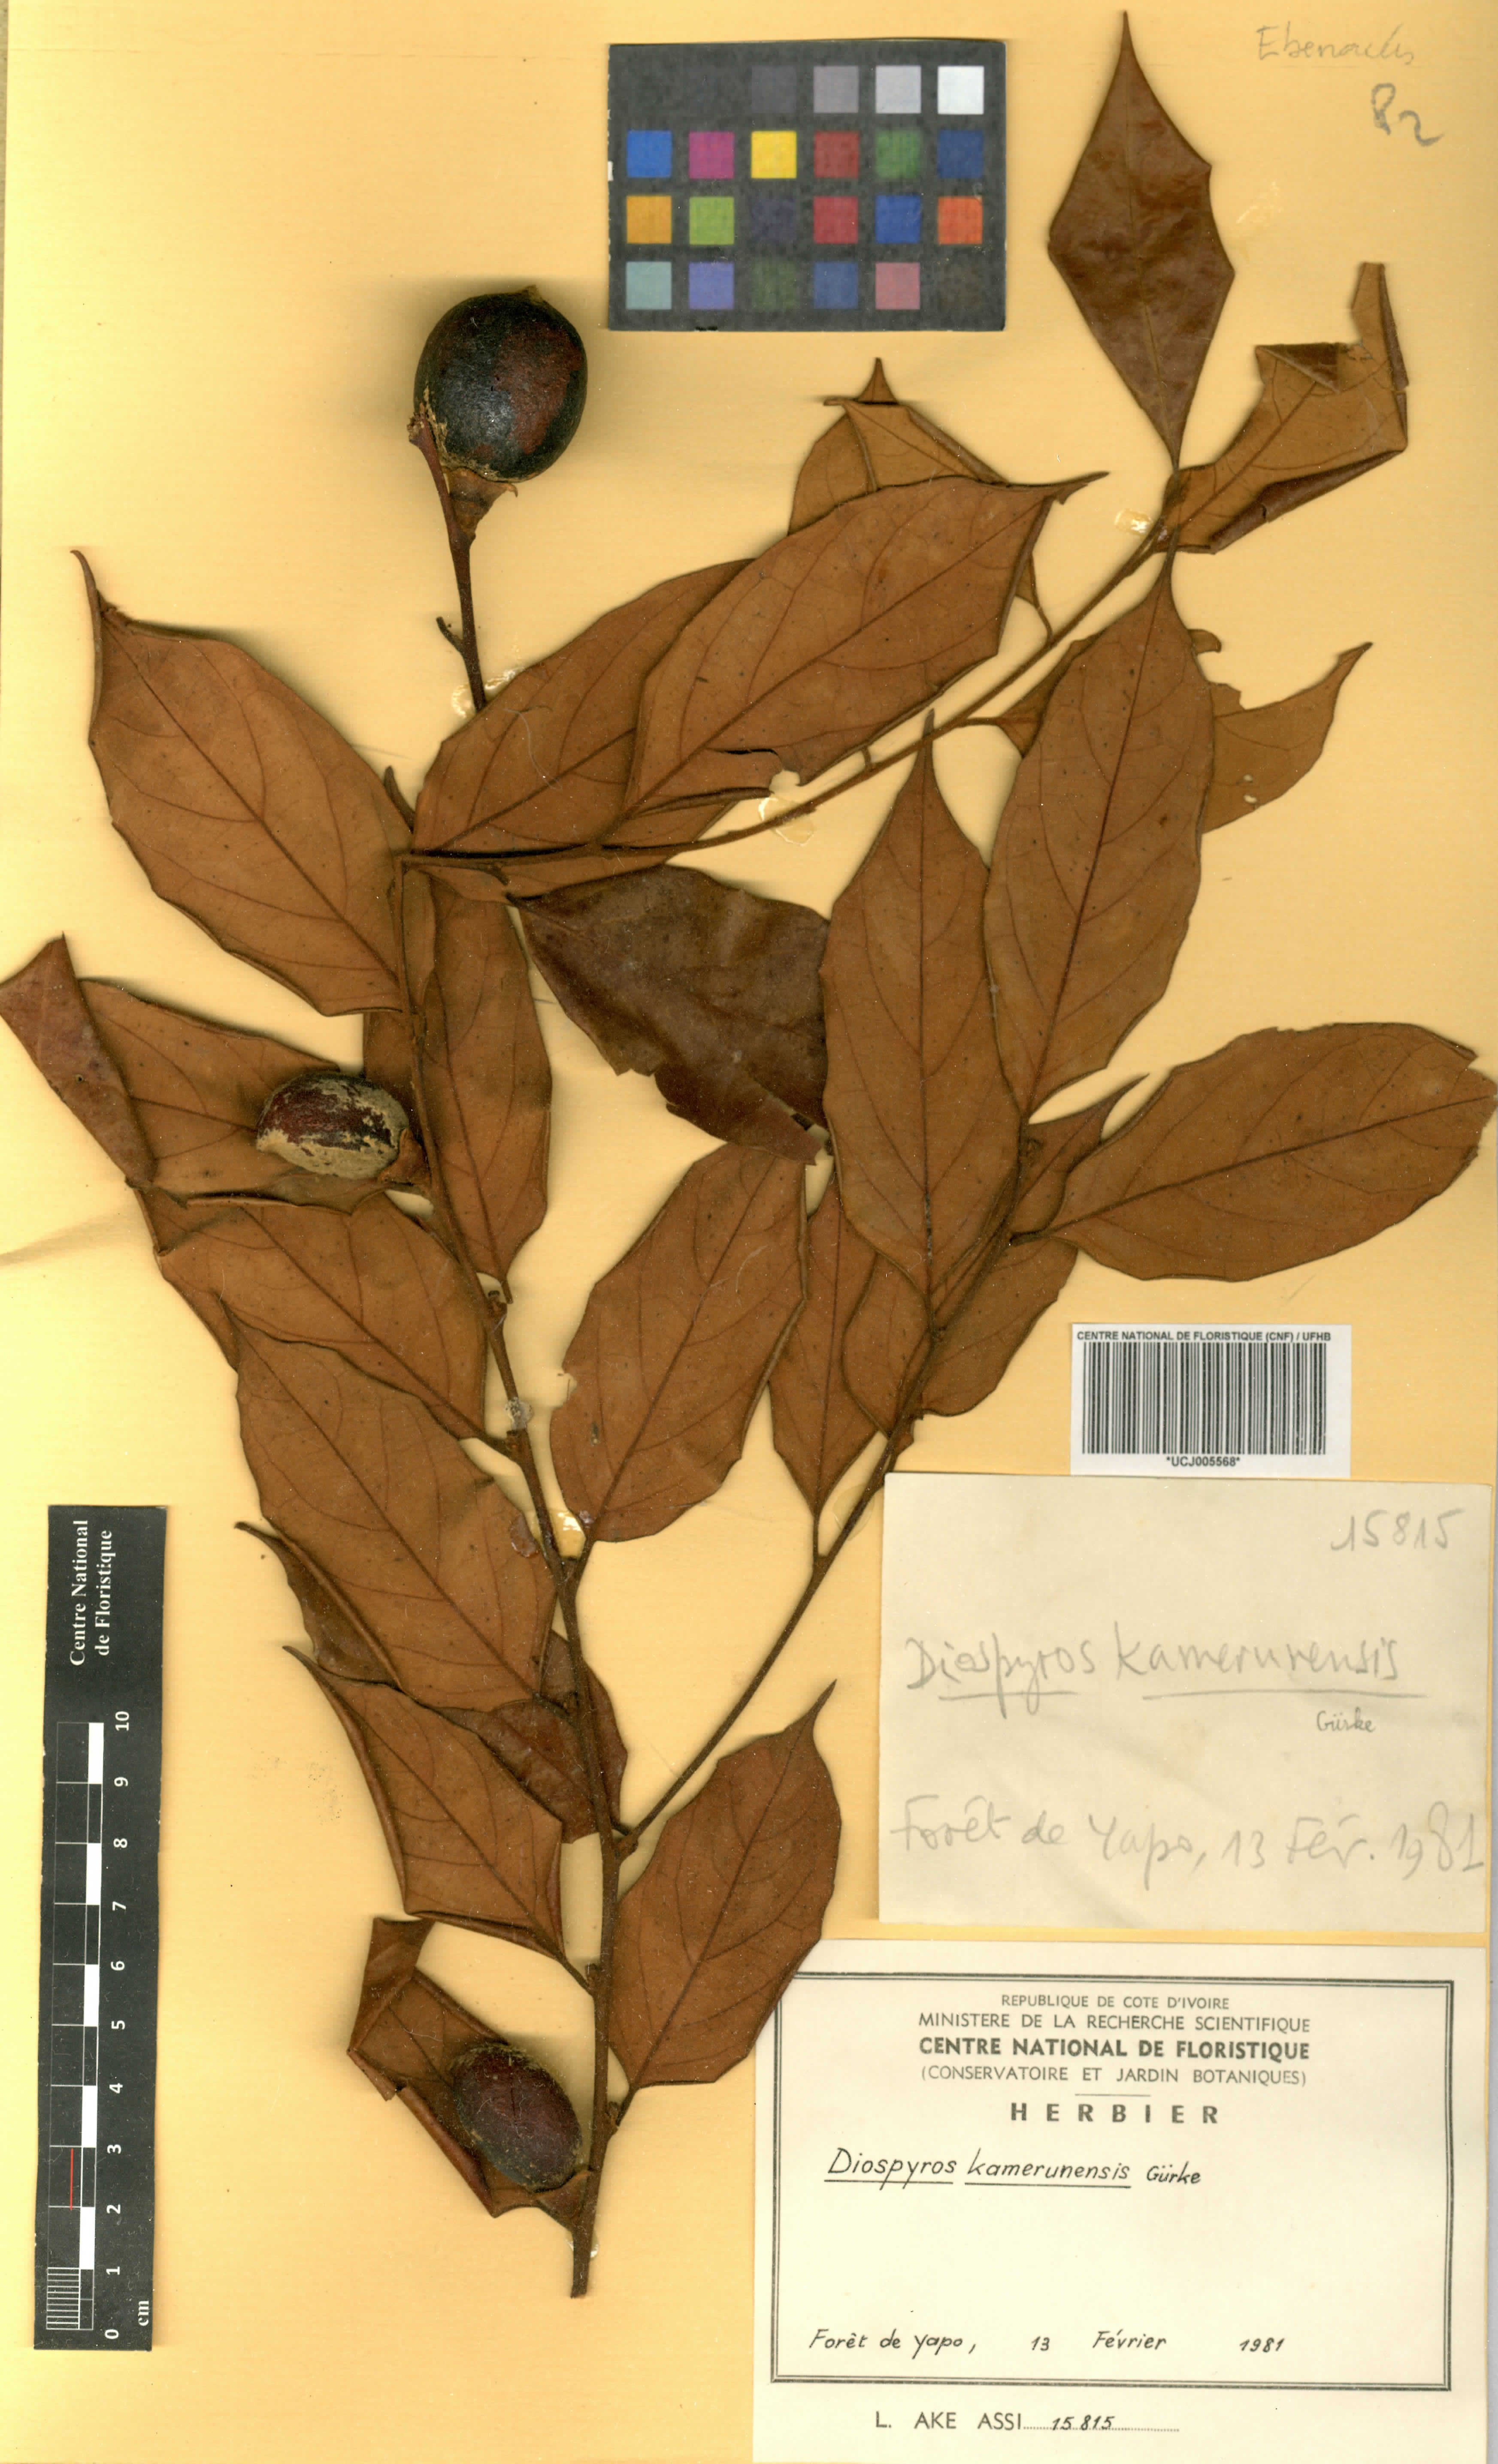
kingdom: Plantae
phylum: Tracheophyta
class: Magnoliopsida
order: Ericales
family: Ebenaceae
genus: Diospyros
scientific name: Diospyros kamerunensis
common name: African ebony
